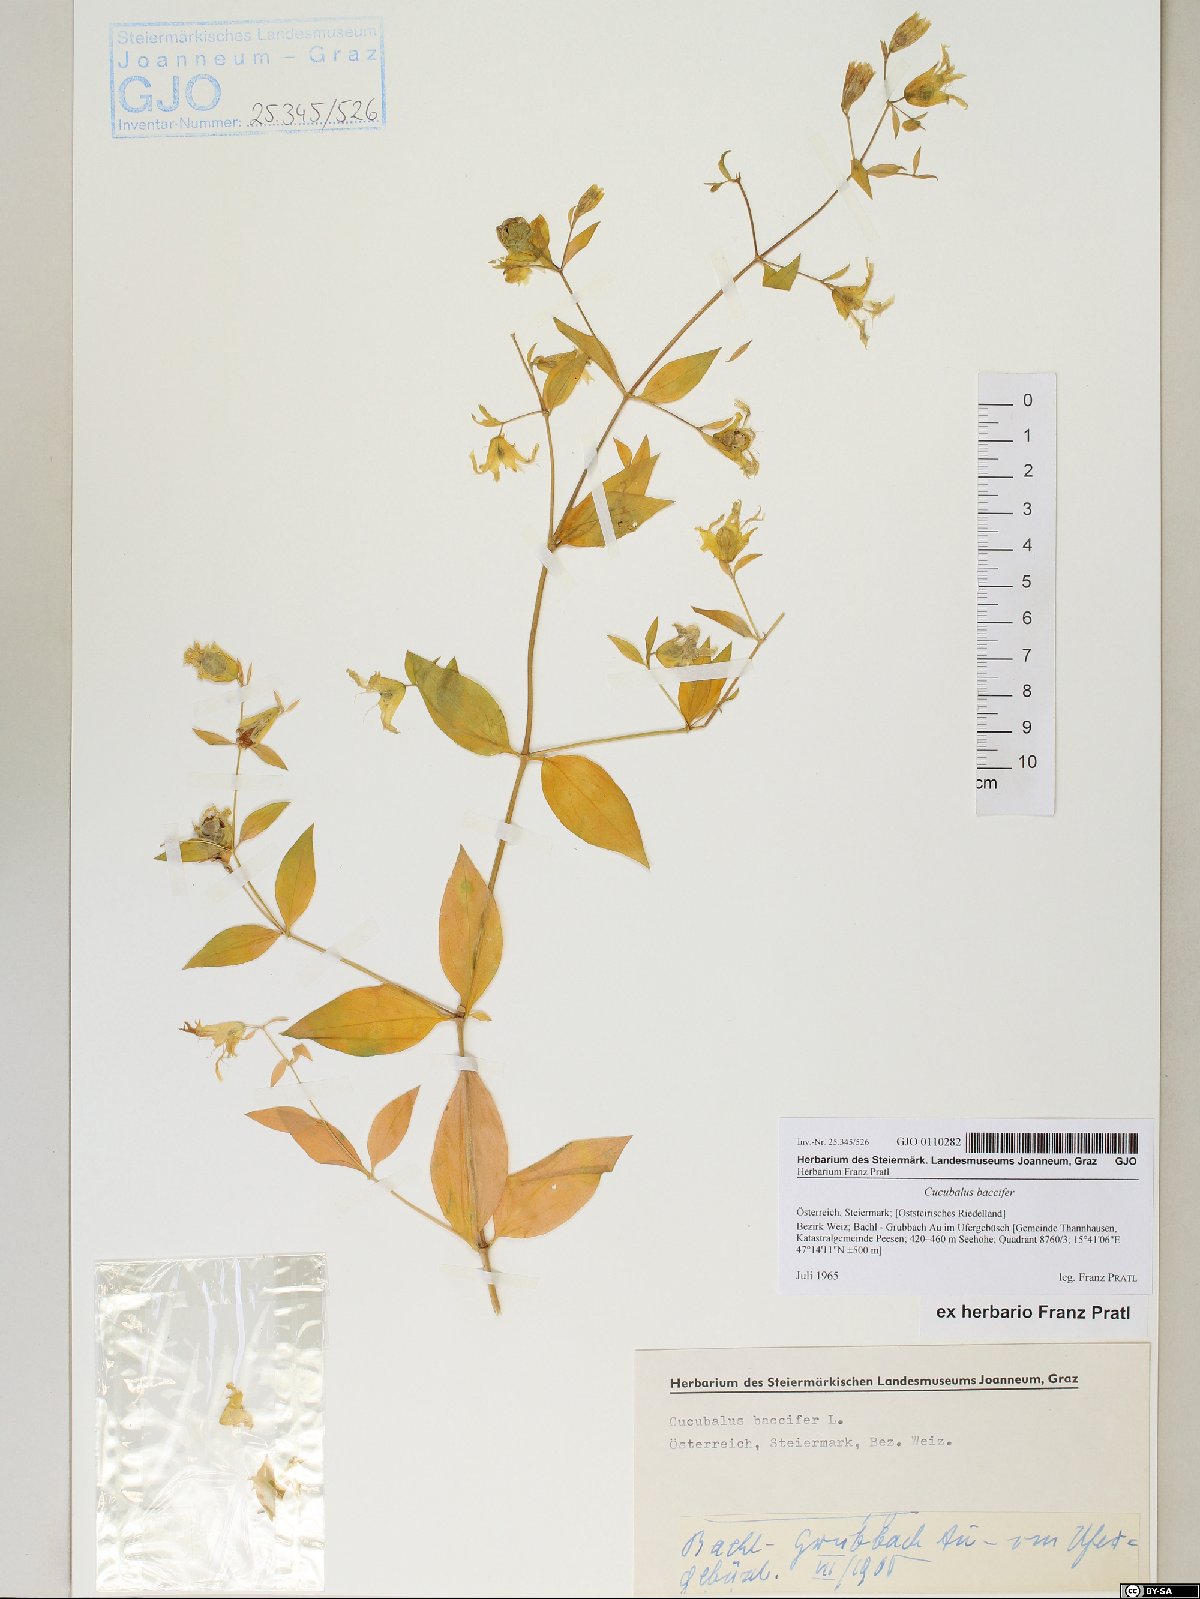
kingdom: Plantae
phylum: Tracheophyta
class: Magnoliopsida
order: Caryophyllales
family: Caryophyllaceae
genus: Silene
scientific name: Silene baccifera
